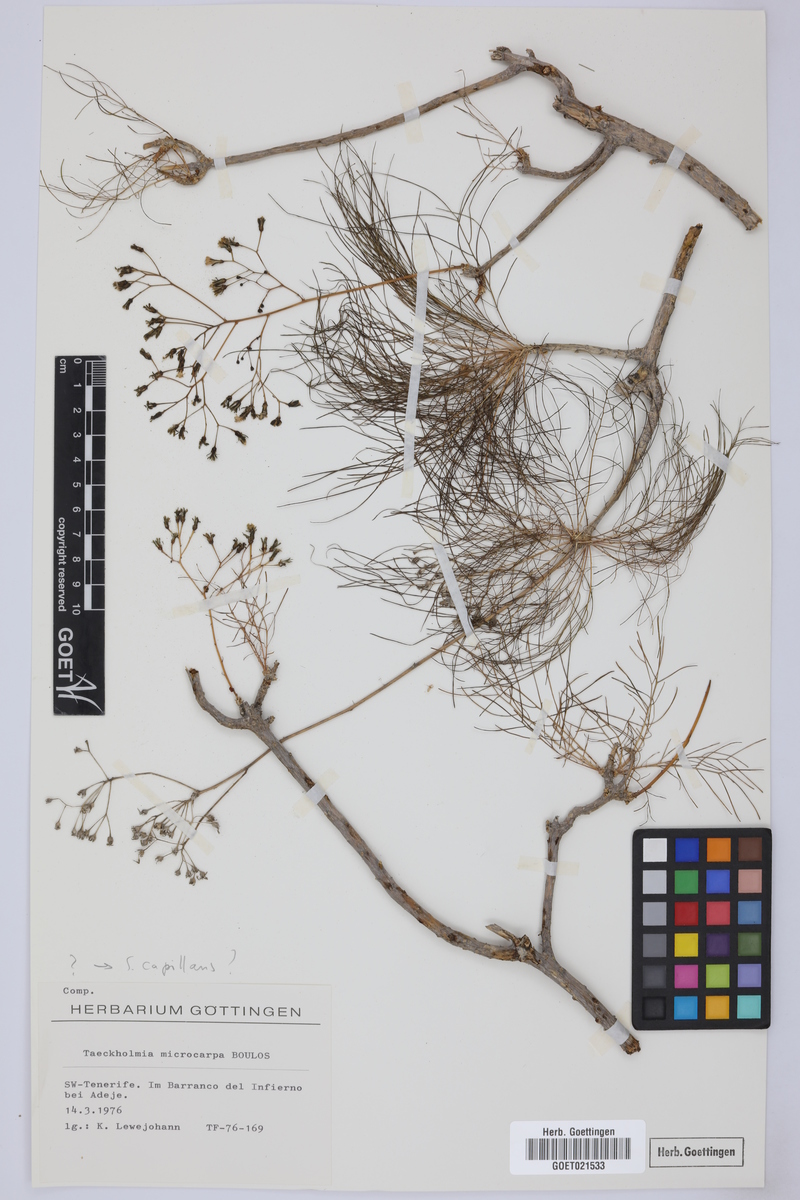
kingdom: Plantae
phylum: Tracheophyta
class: Magnoliopsida
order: Asterales
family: Asteraceae
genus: Sonchus
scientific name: Sonchus capillaris
